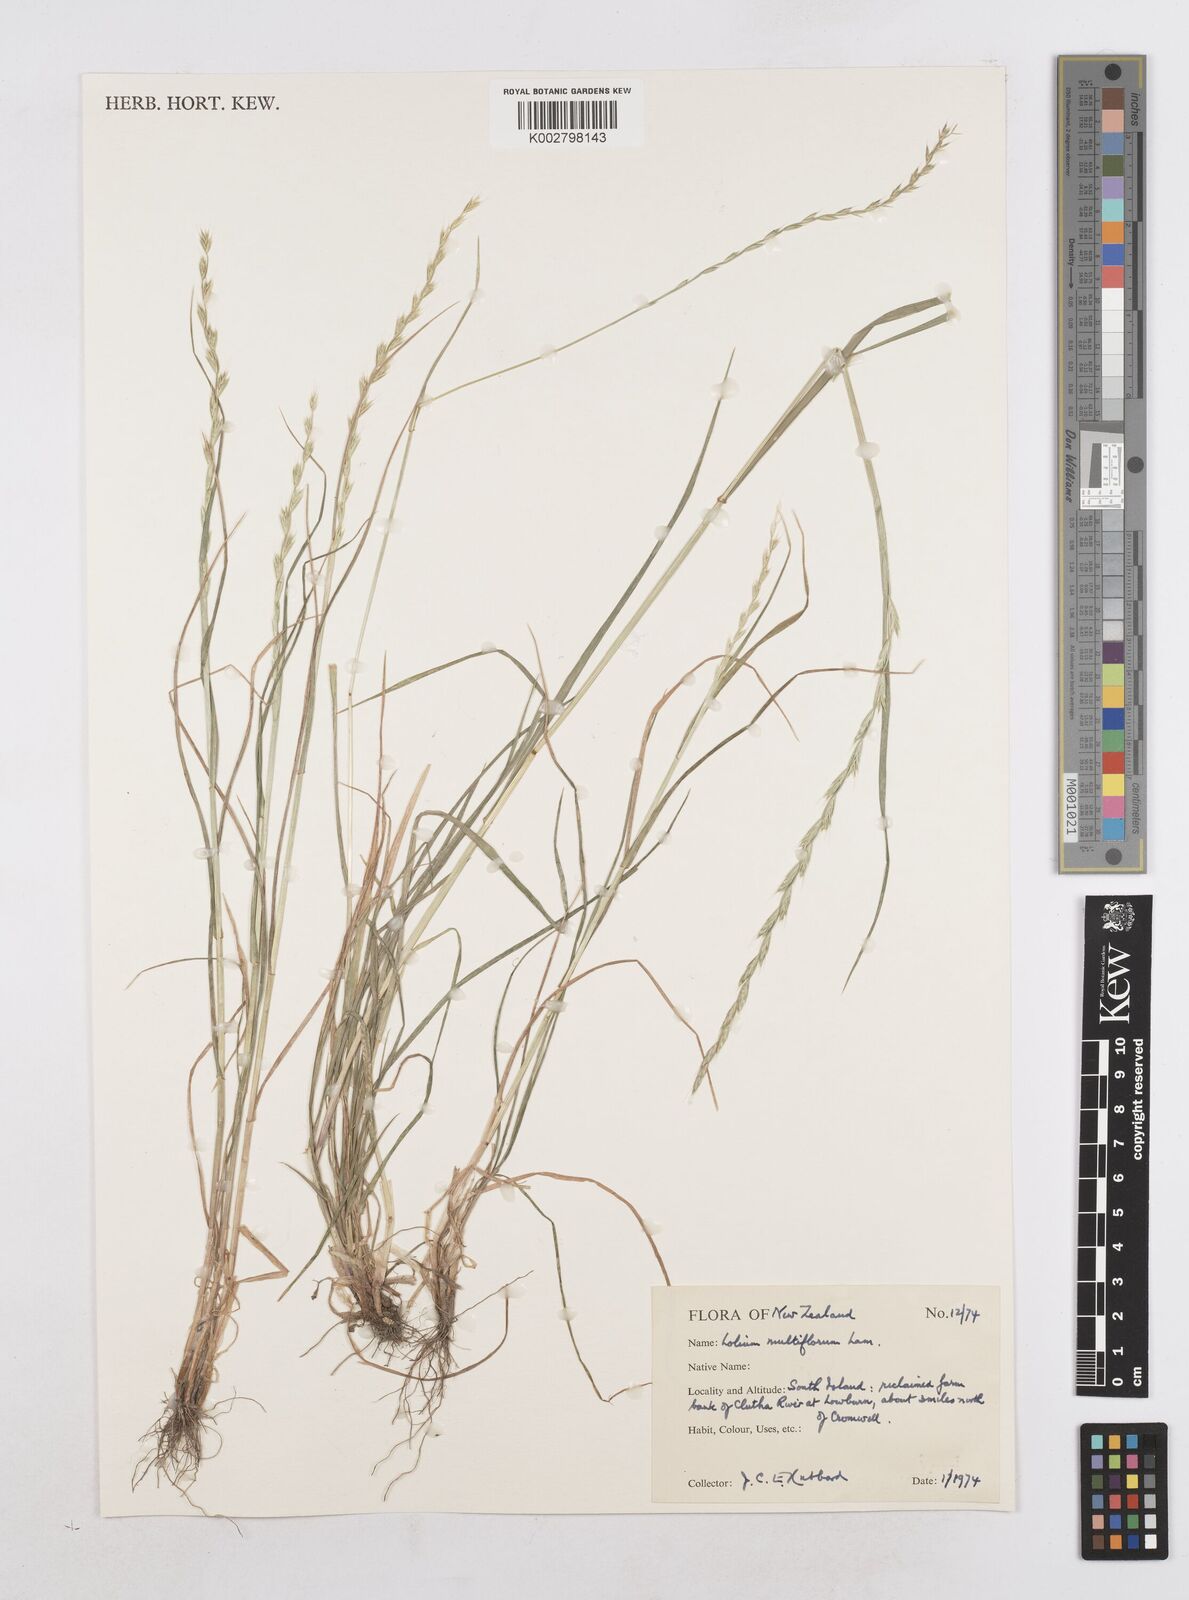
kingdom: Plantae
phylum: Tracheophyta
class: Liliopsida
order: Poales
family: Poaceae
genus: Lolium
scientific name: Lolium multiflorum
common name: Annual ryegrass
